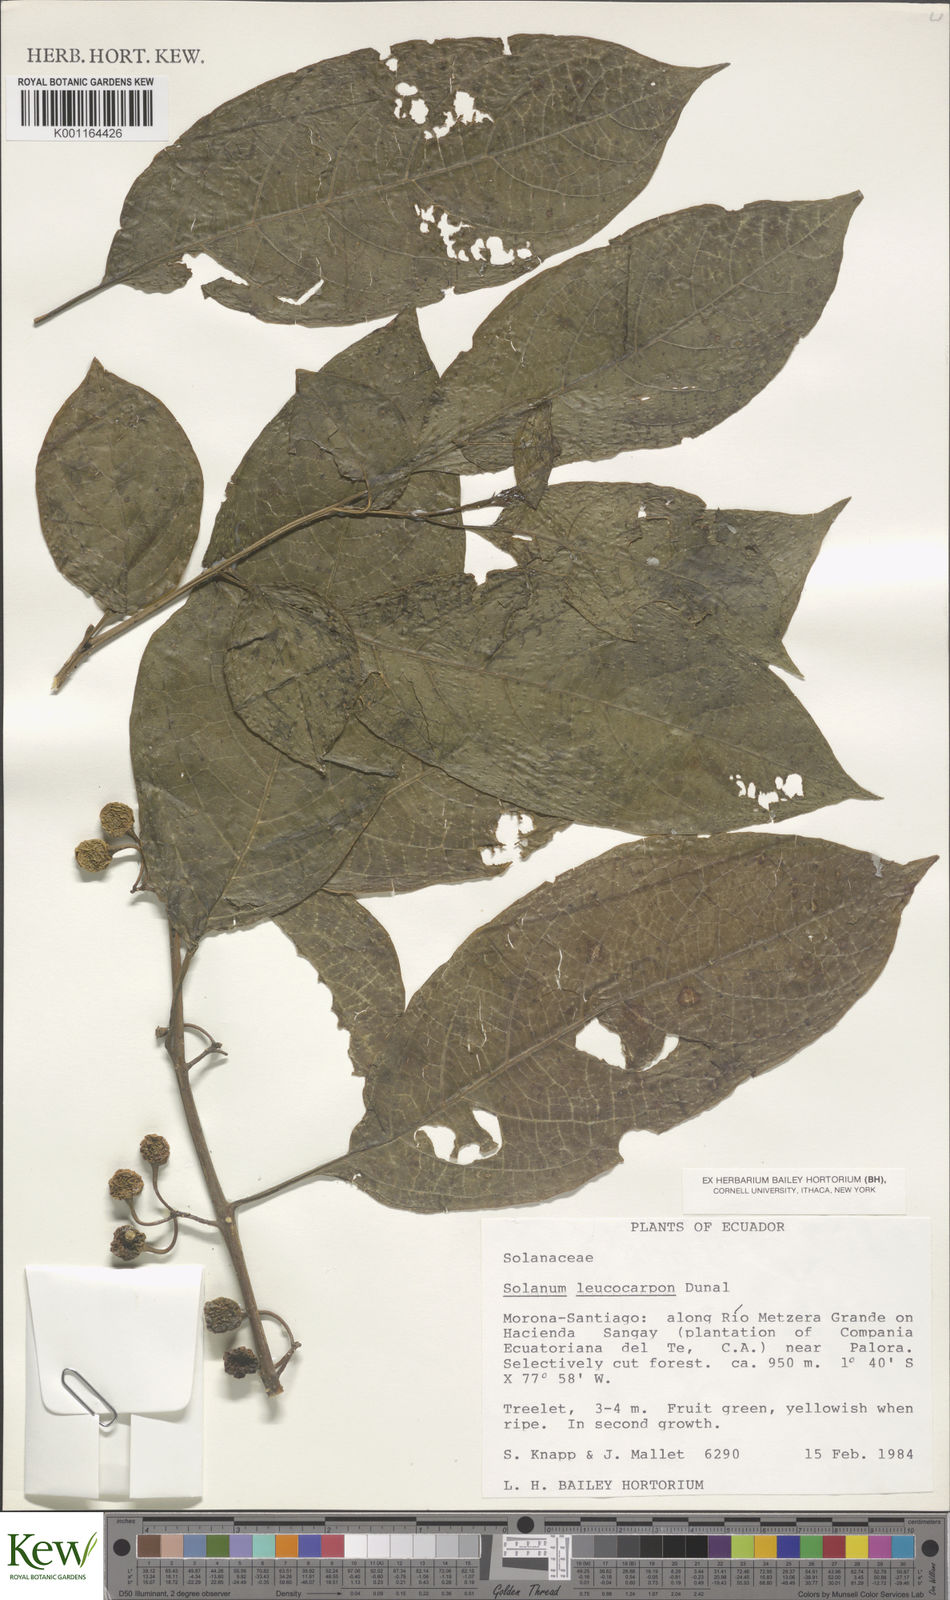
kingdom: Plantae
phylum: Tracheophyta
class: Magnoliopsida
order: Solanales
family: Solanaceae
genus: Solanum
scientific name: Solanum leucocarpon
